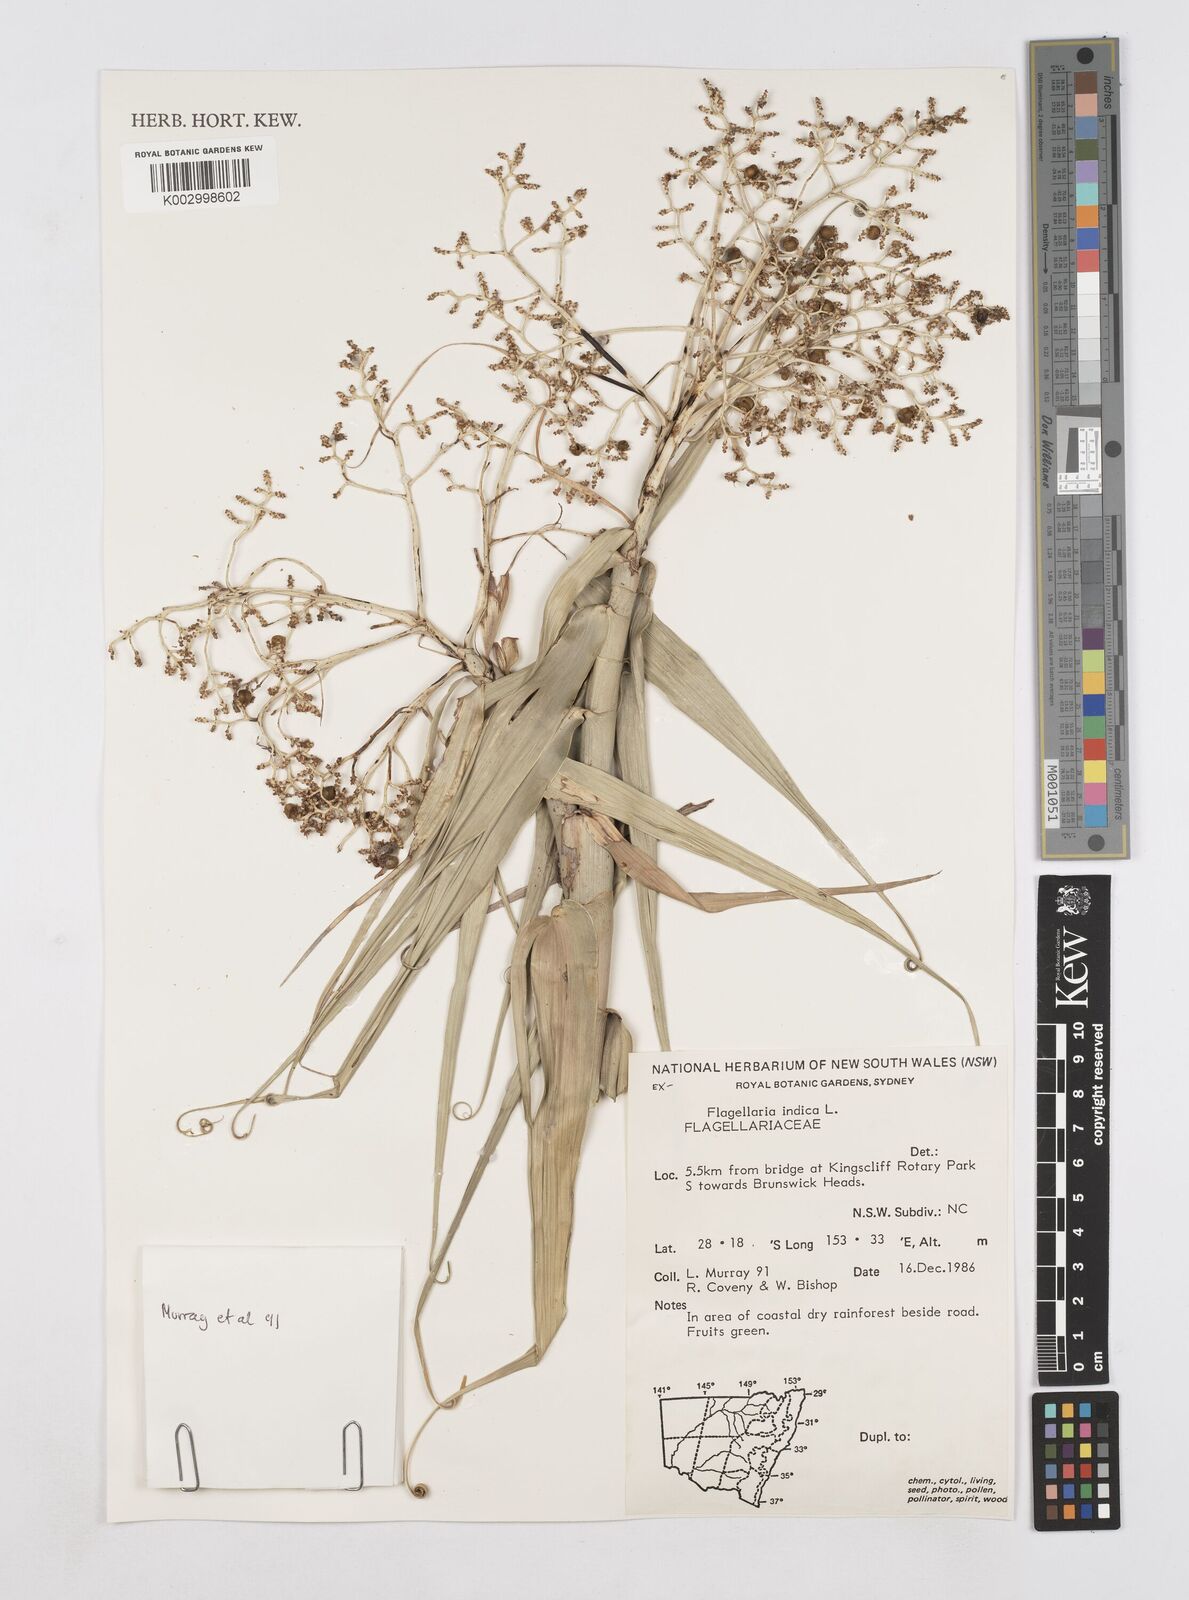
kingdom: Plantae
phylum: Tracheophyta
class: Liliopsida
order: Poales
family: Flagellariaceae
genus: Flagellaria
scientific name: Flagellaria indica
